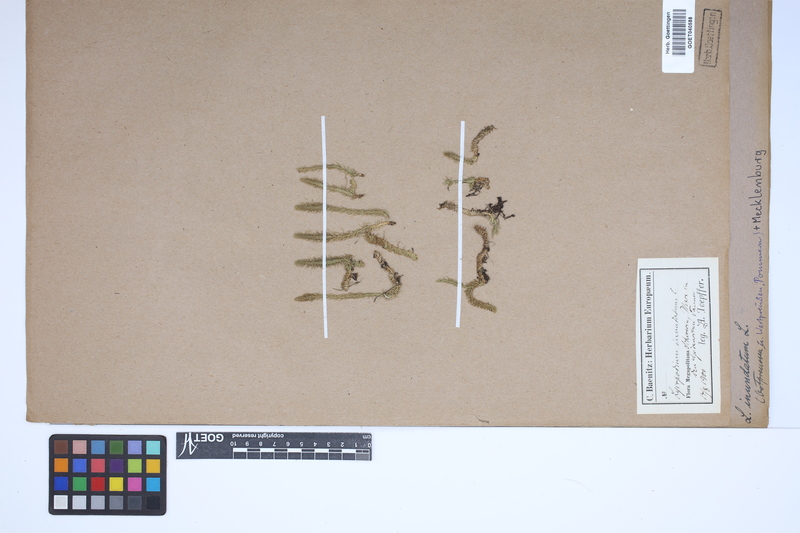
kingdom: Plantae
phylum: Tracheophyta
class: Lycopodiopsida
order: Lycopodiales
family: Lycopodiaceae
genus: Lycopodiella
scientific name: Lycopodiella inundata
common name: Marsh clubmoss
